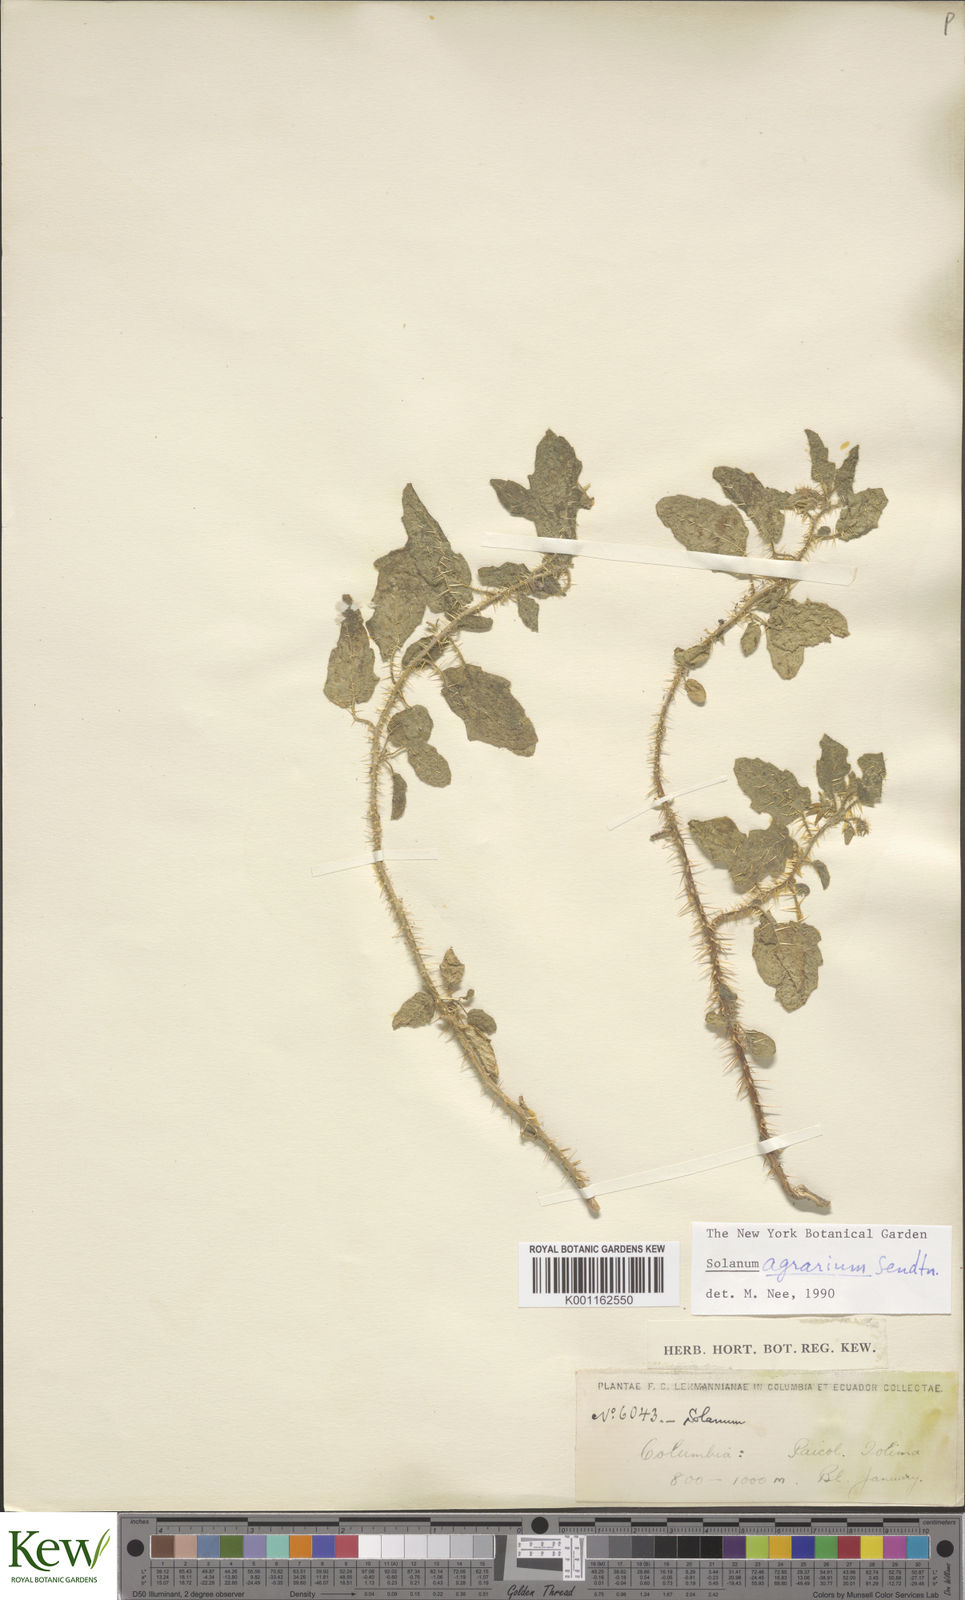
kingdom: Plantae
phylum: Tracheophyta
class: Magnoliopsida
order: Solanales
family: Solanaceae
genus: Solanum
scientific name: Solanum agrarium
